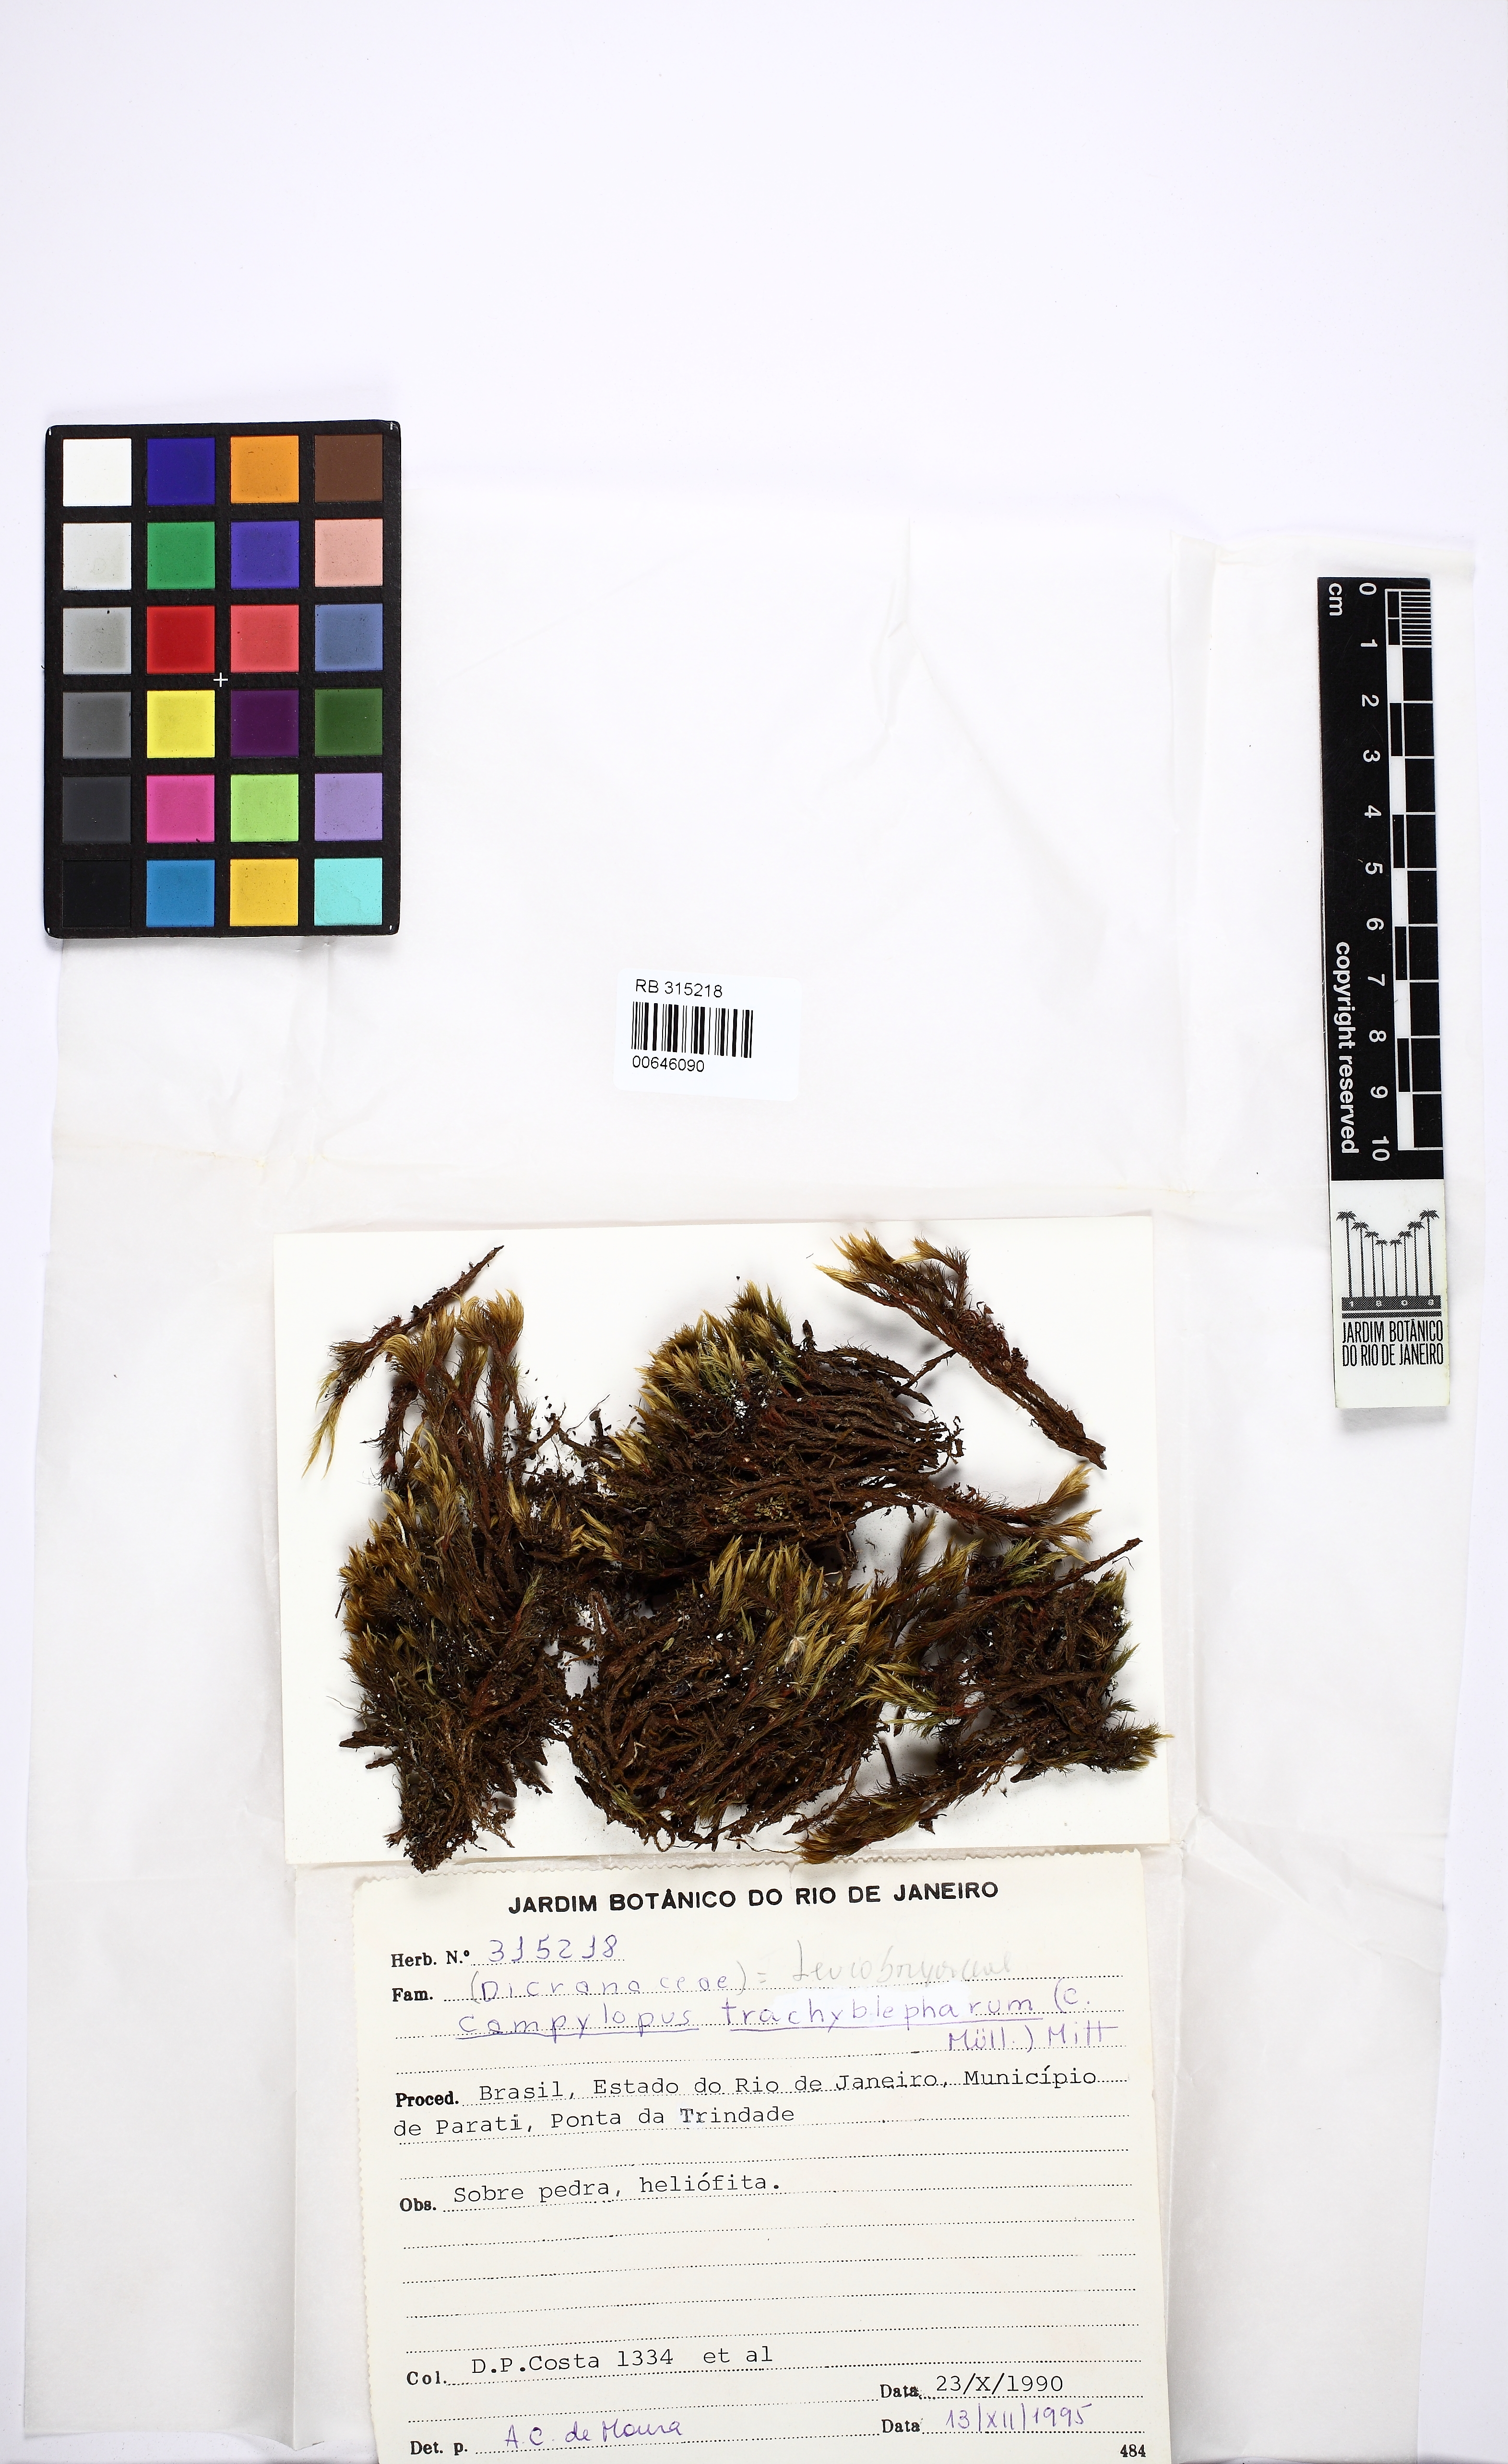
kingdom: Plantae
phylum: Bryophyta
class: Bryopsida
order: Dicranales
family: Leucobryaceae
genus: Campylopus
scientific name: Campylopus trachyblepharon
